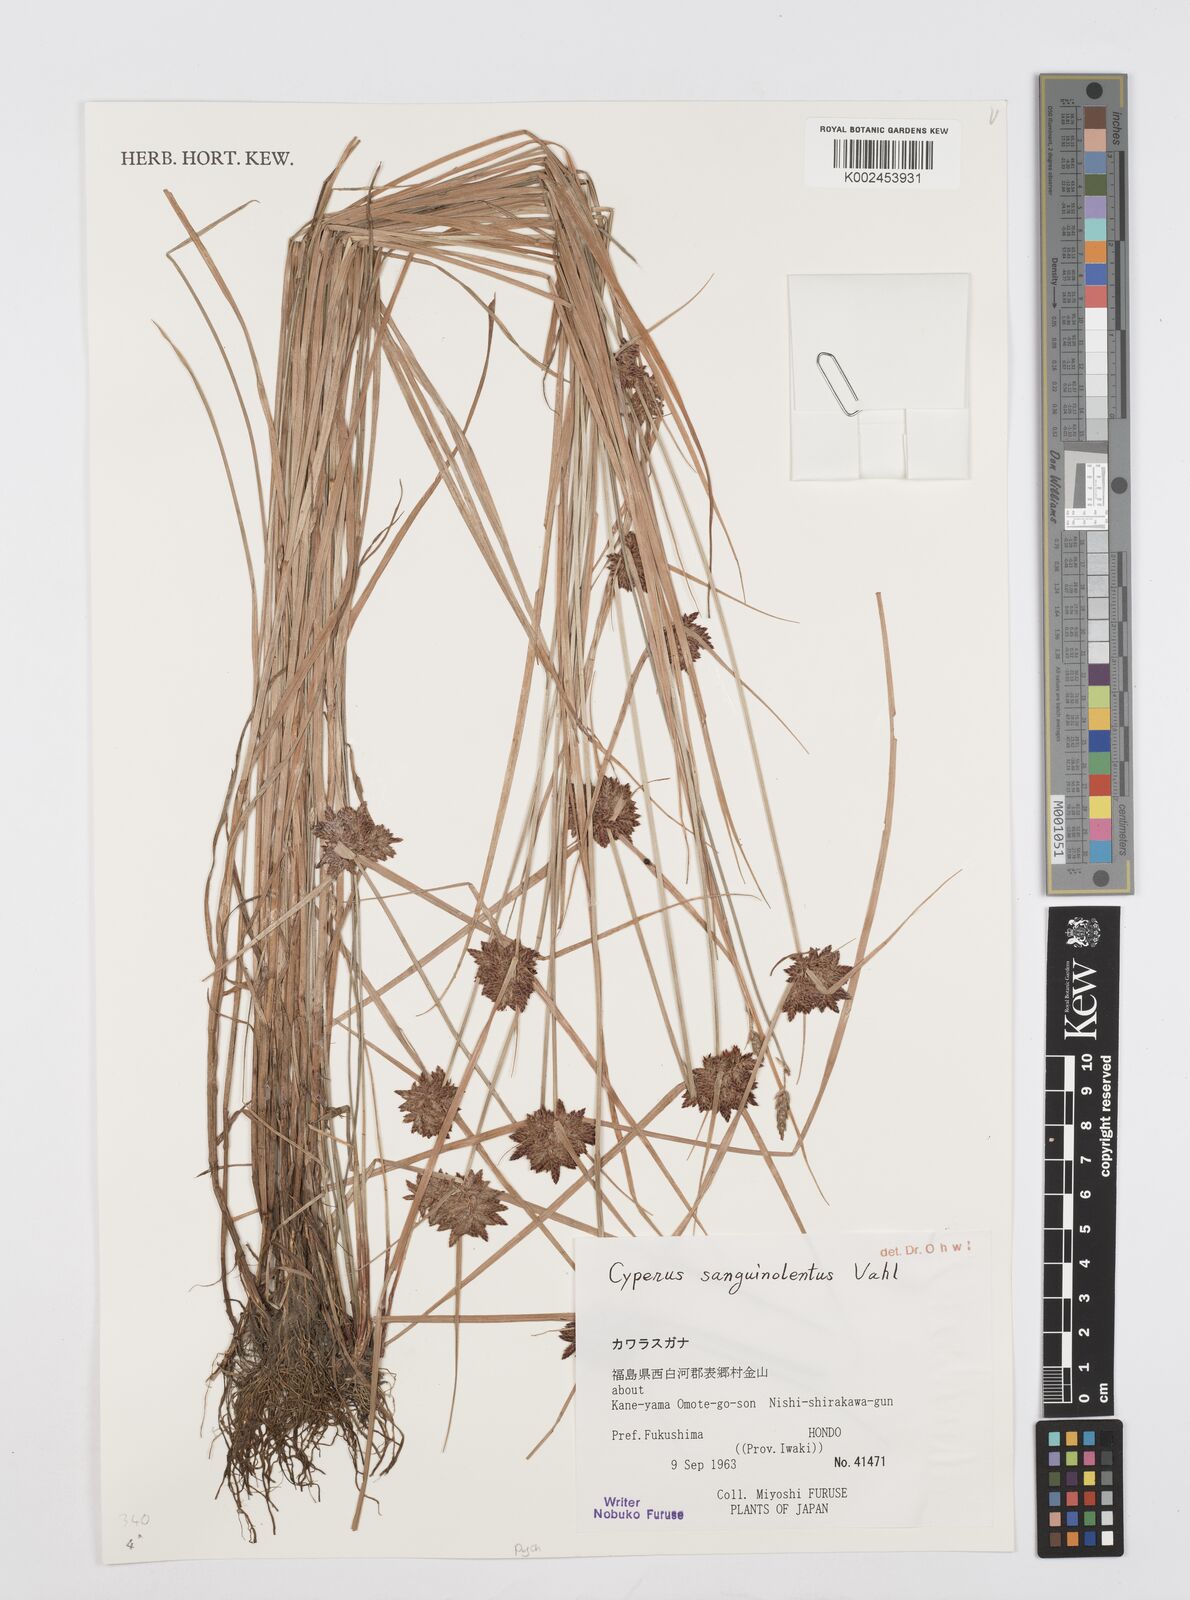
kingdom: Plantae
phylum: Tracheophyta
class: Liliopsida
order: Poales
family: Cyperaceae
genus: Cyperus
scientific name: Cyperus sanguinolentus
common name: Purpleglume flatsedge
